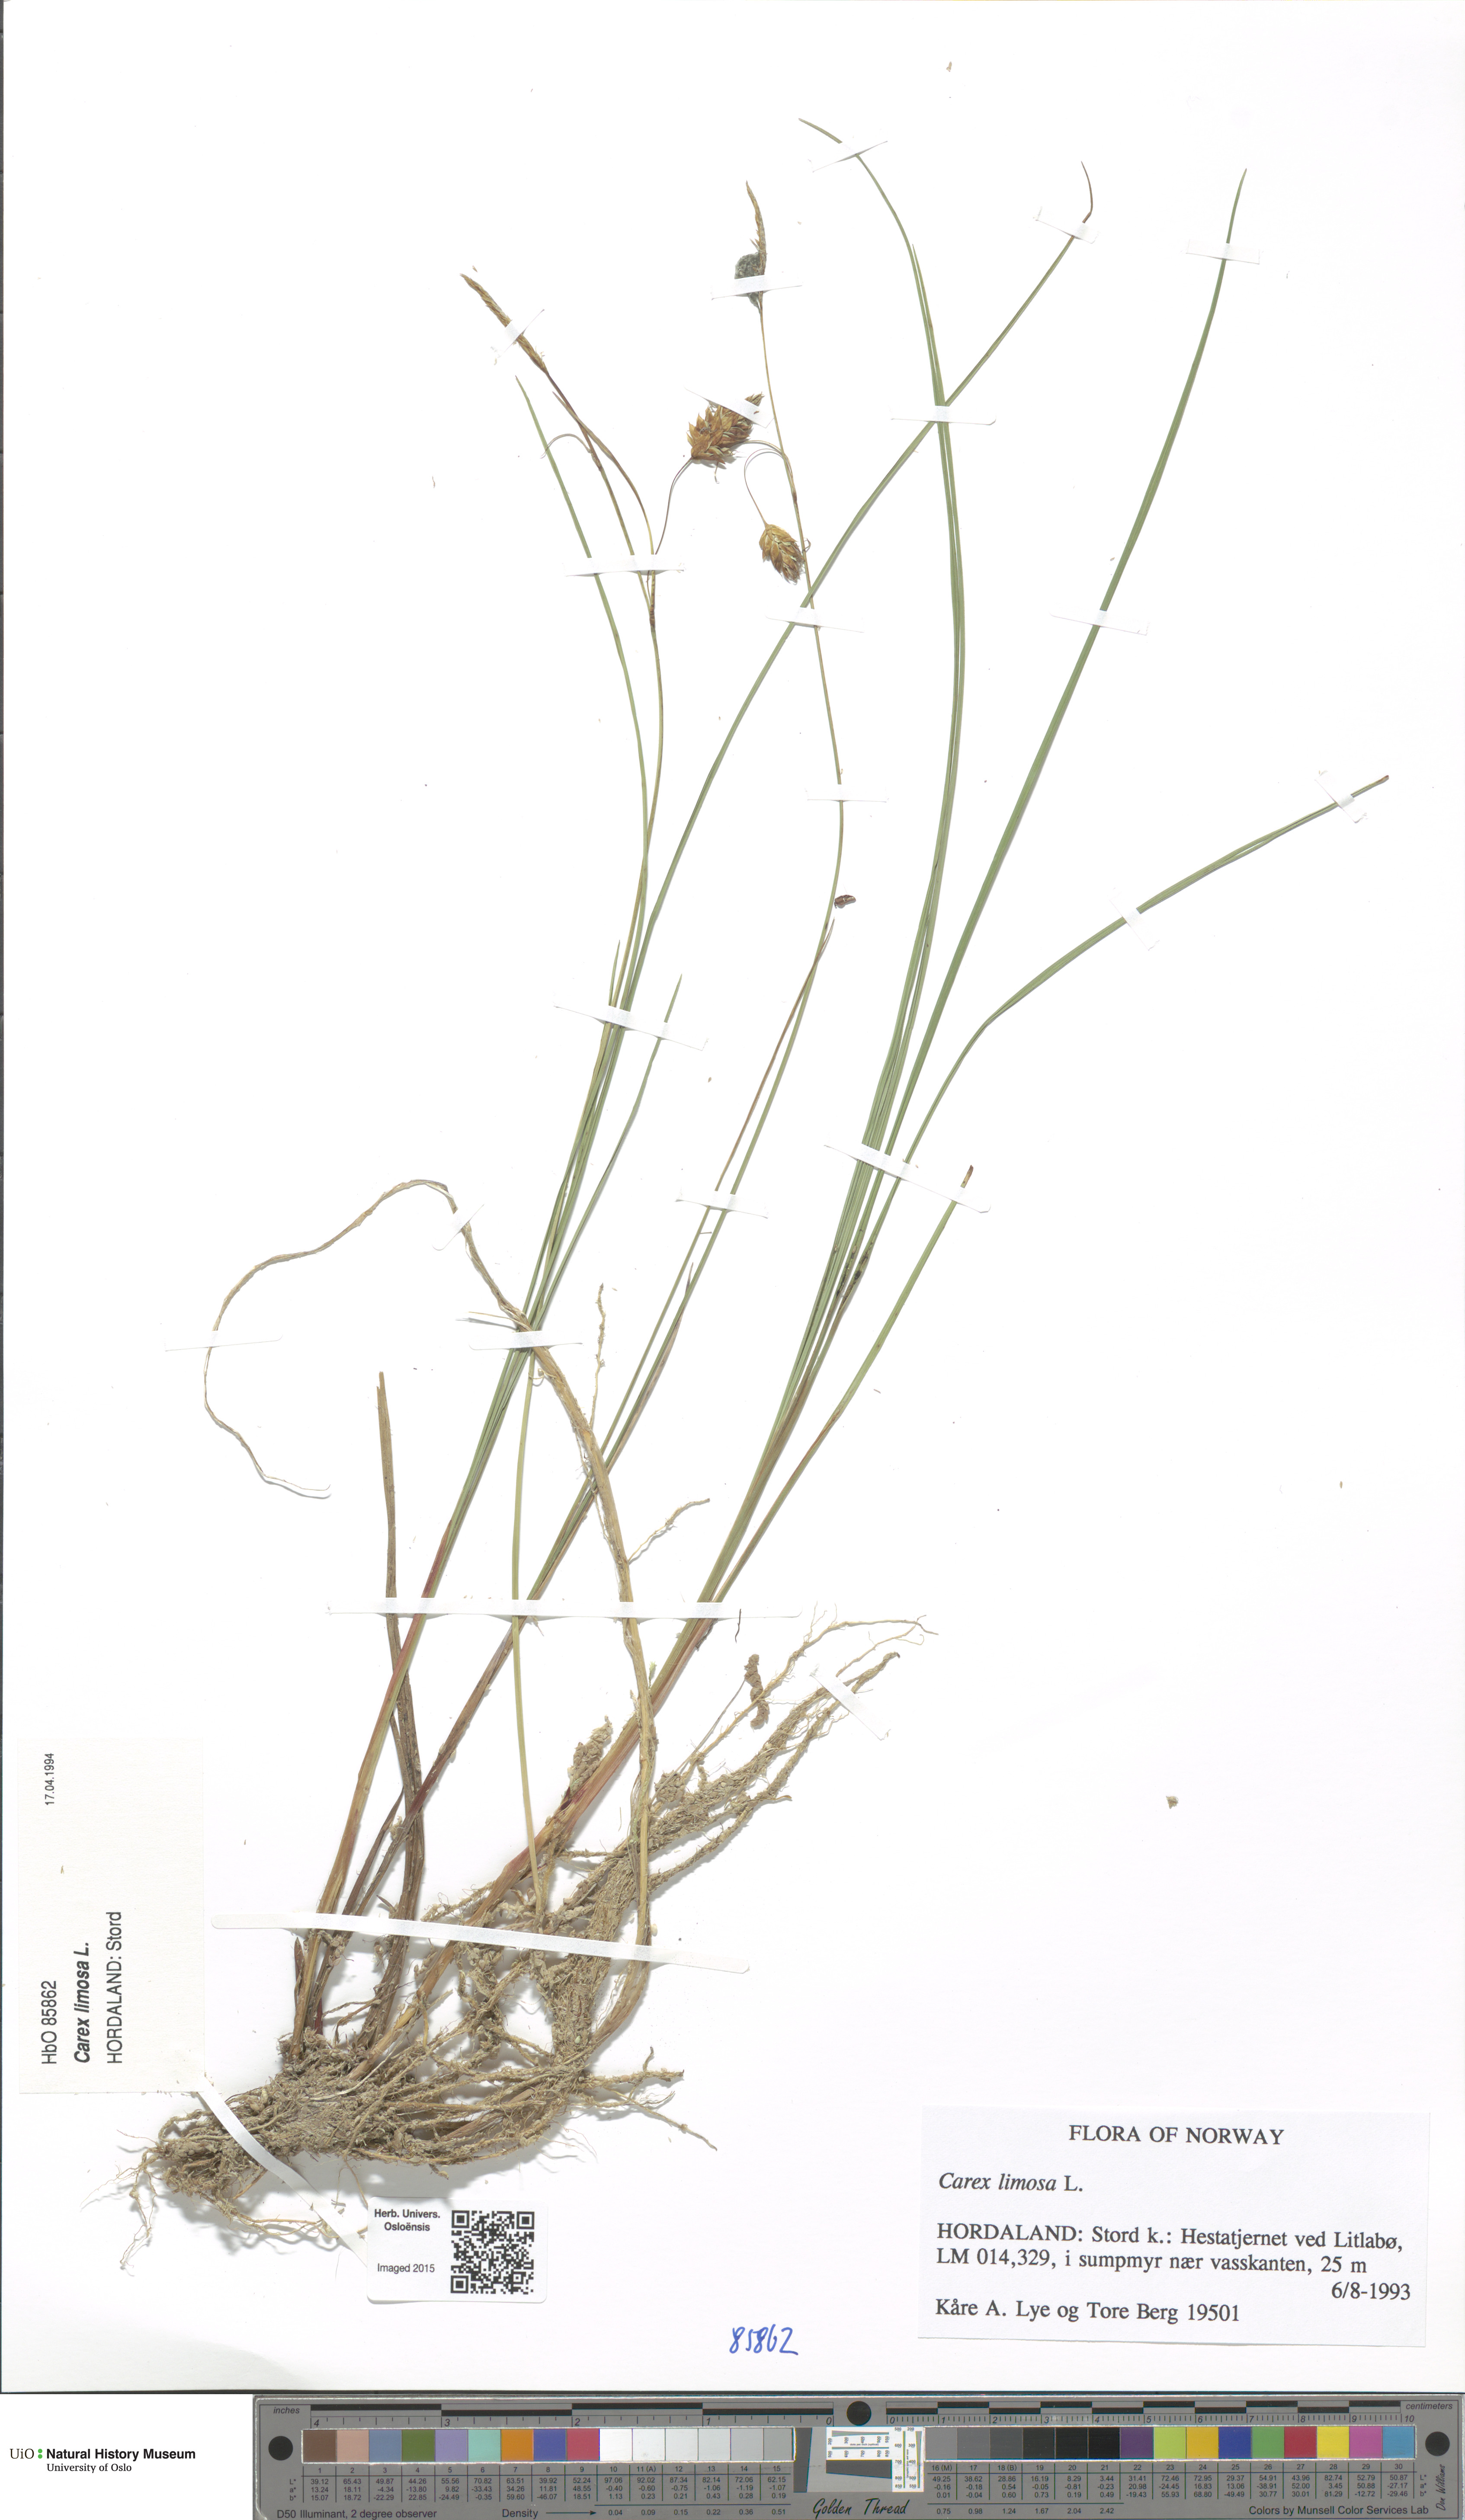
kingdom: Plantae
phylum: Tracheophyta
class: Liliopsida
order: Poales
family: Cyperaceae
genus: Carex
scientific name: Carex limosa
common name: Bog sedge
